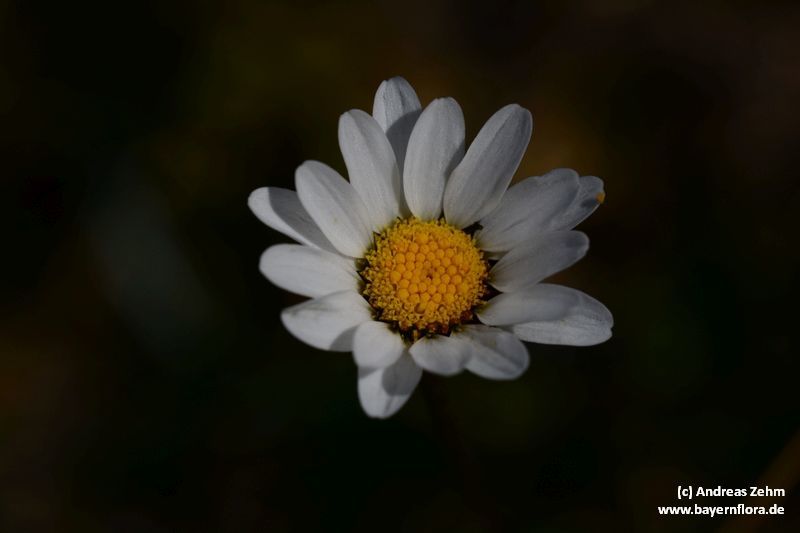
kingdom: Plantae
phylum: Tracheophyta
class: Magnoliopsida
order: Asterales
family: Asteraceae
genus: Leucanthemum
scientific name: Leucanthemum halleri
